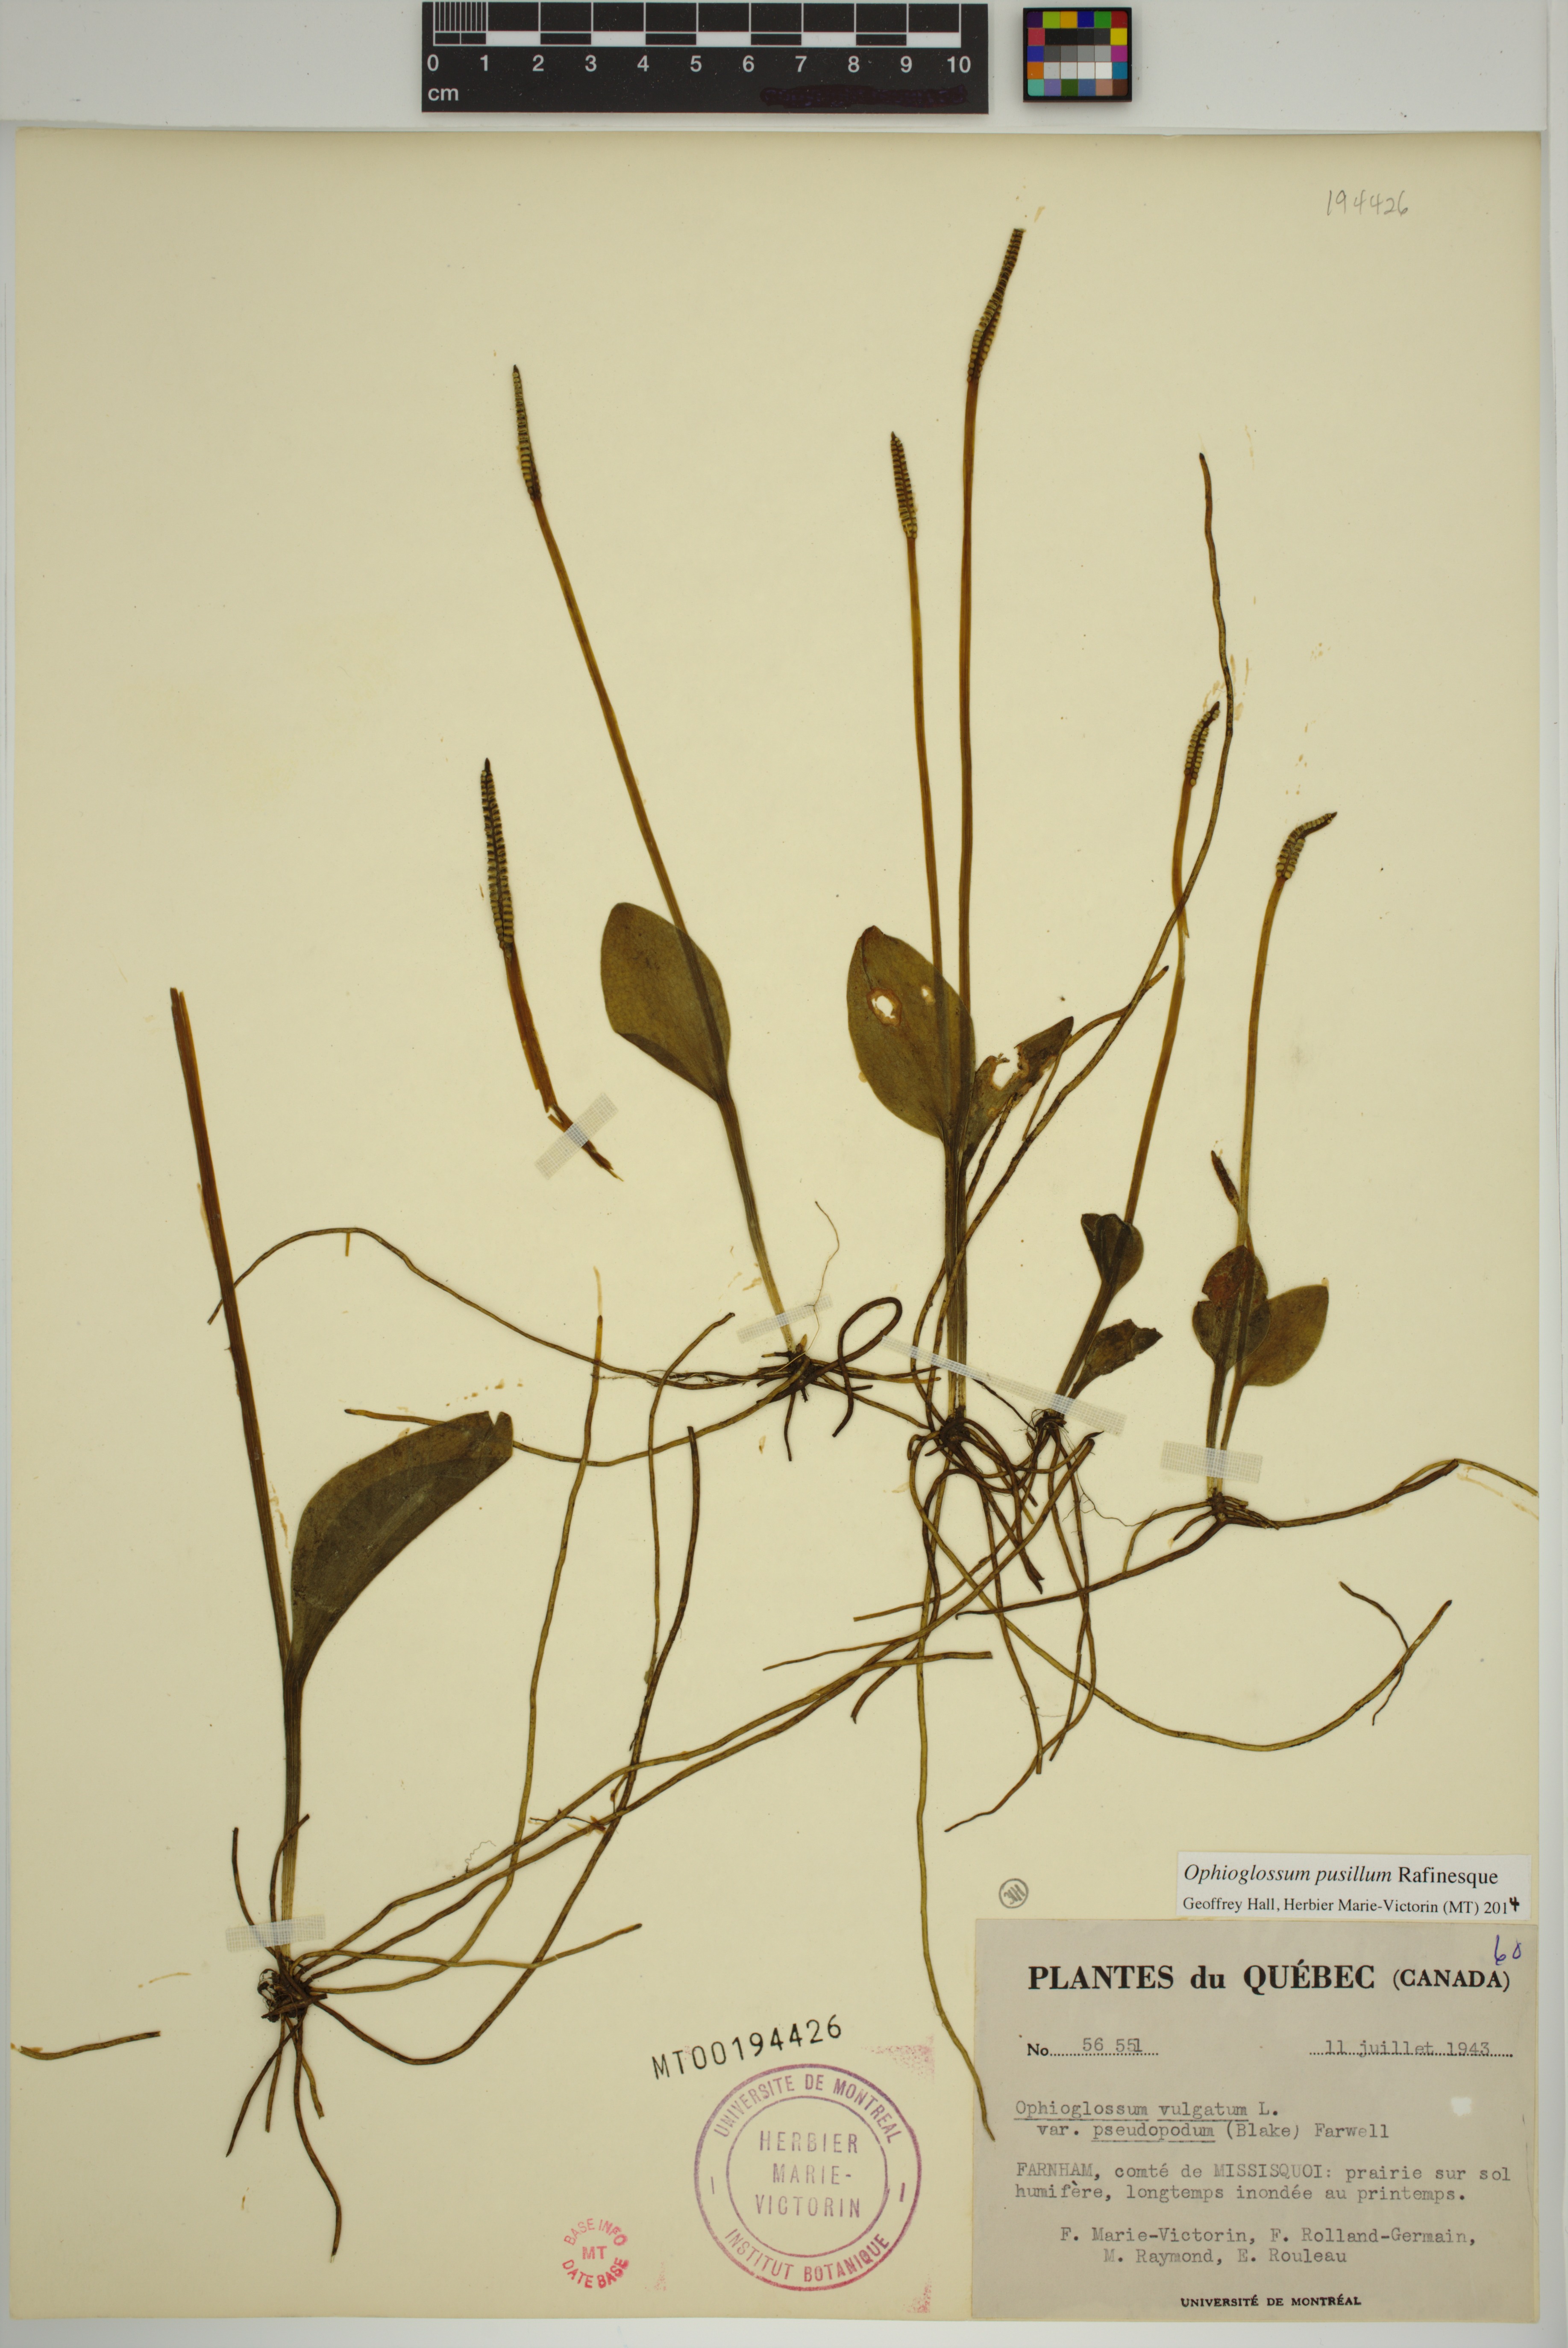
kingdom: Plantae
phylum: Tracheophyta
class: Polypodiopsida
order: Ophioglossales
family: Ophioglossaceae
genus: Ophioglossum
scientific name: Ophioglossum pusillum
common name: Northern adder's-tongue
